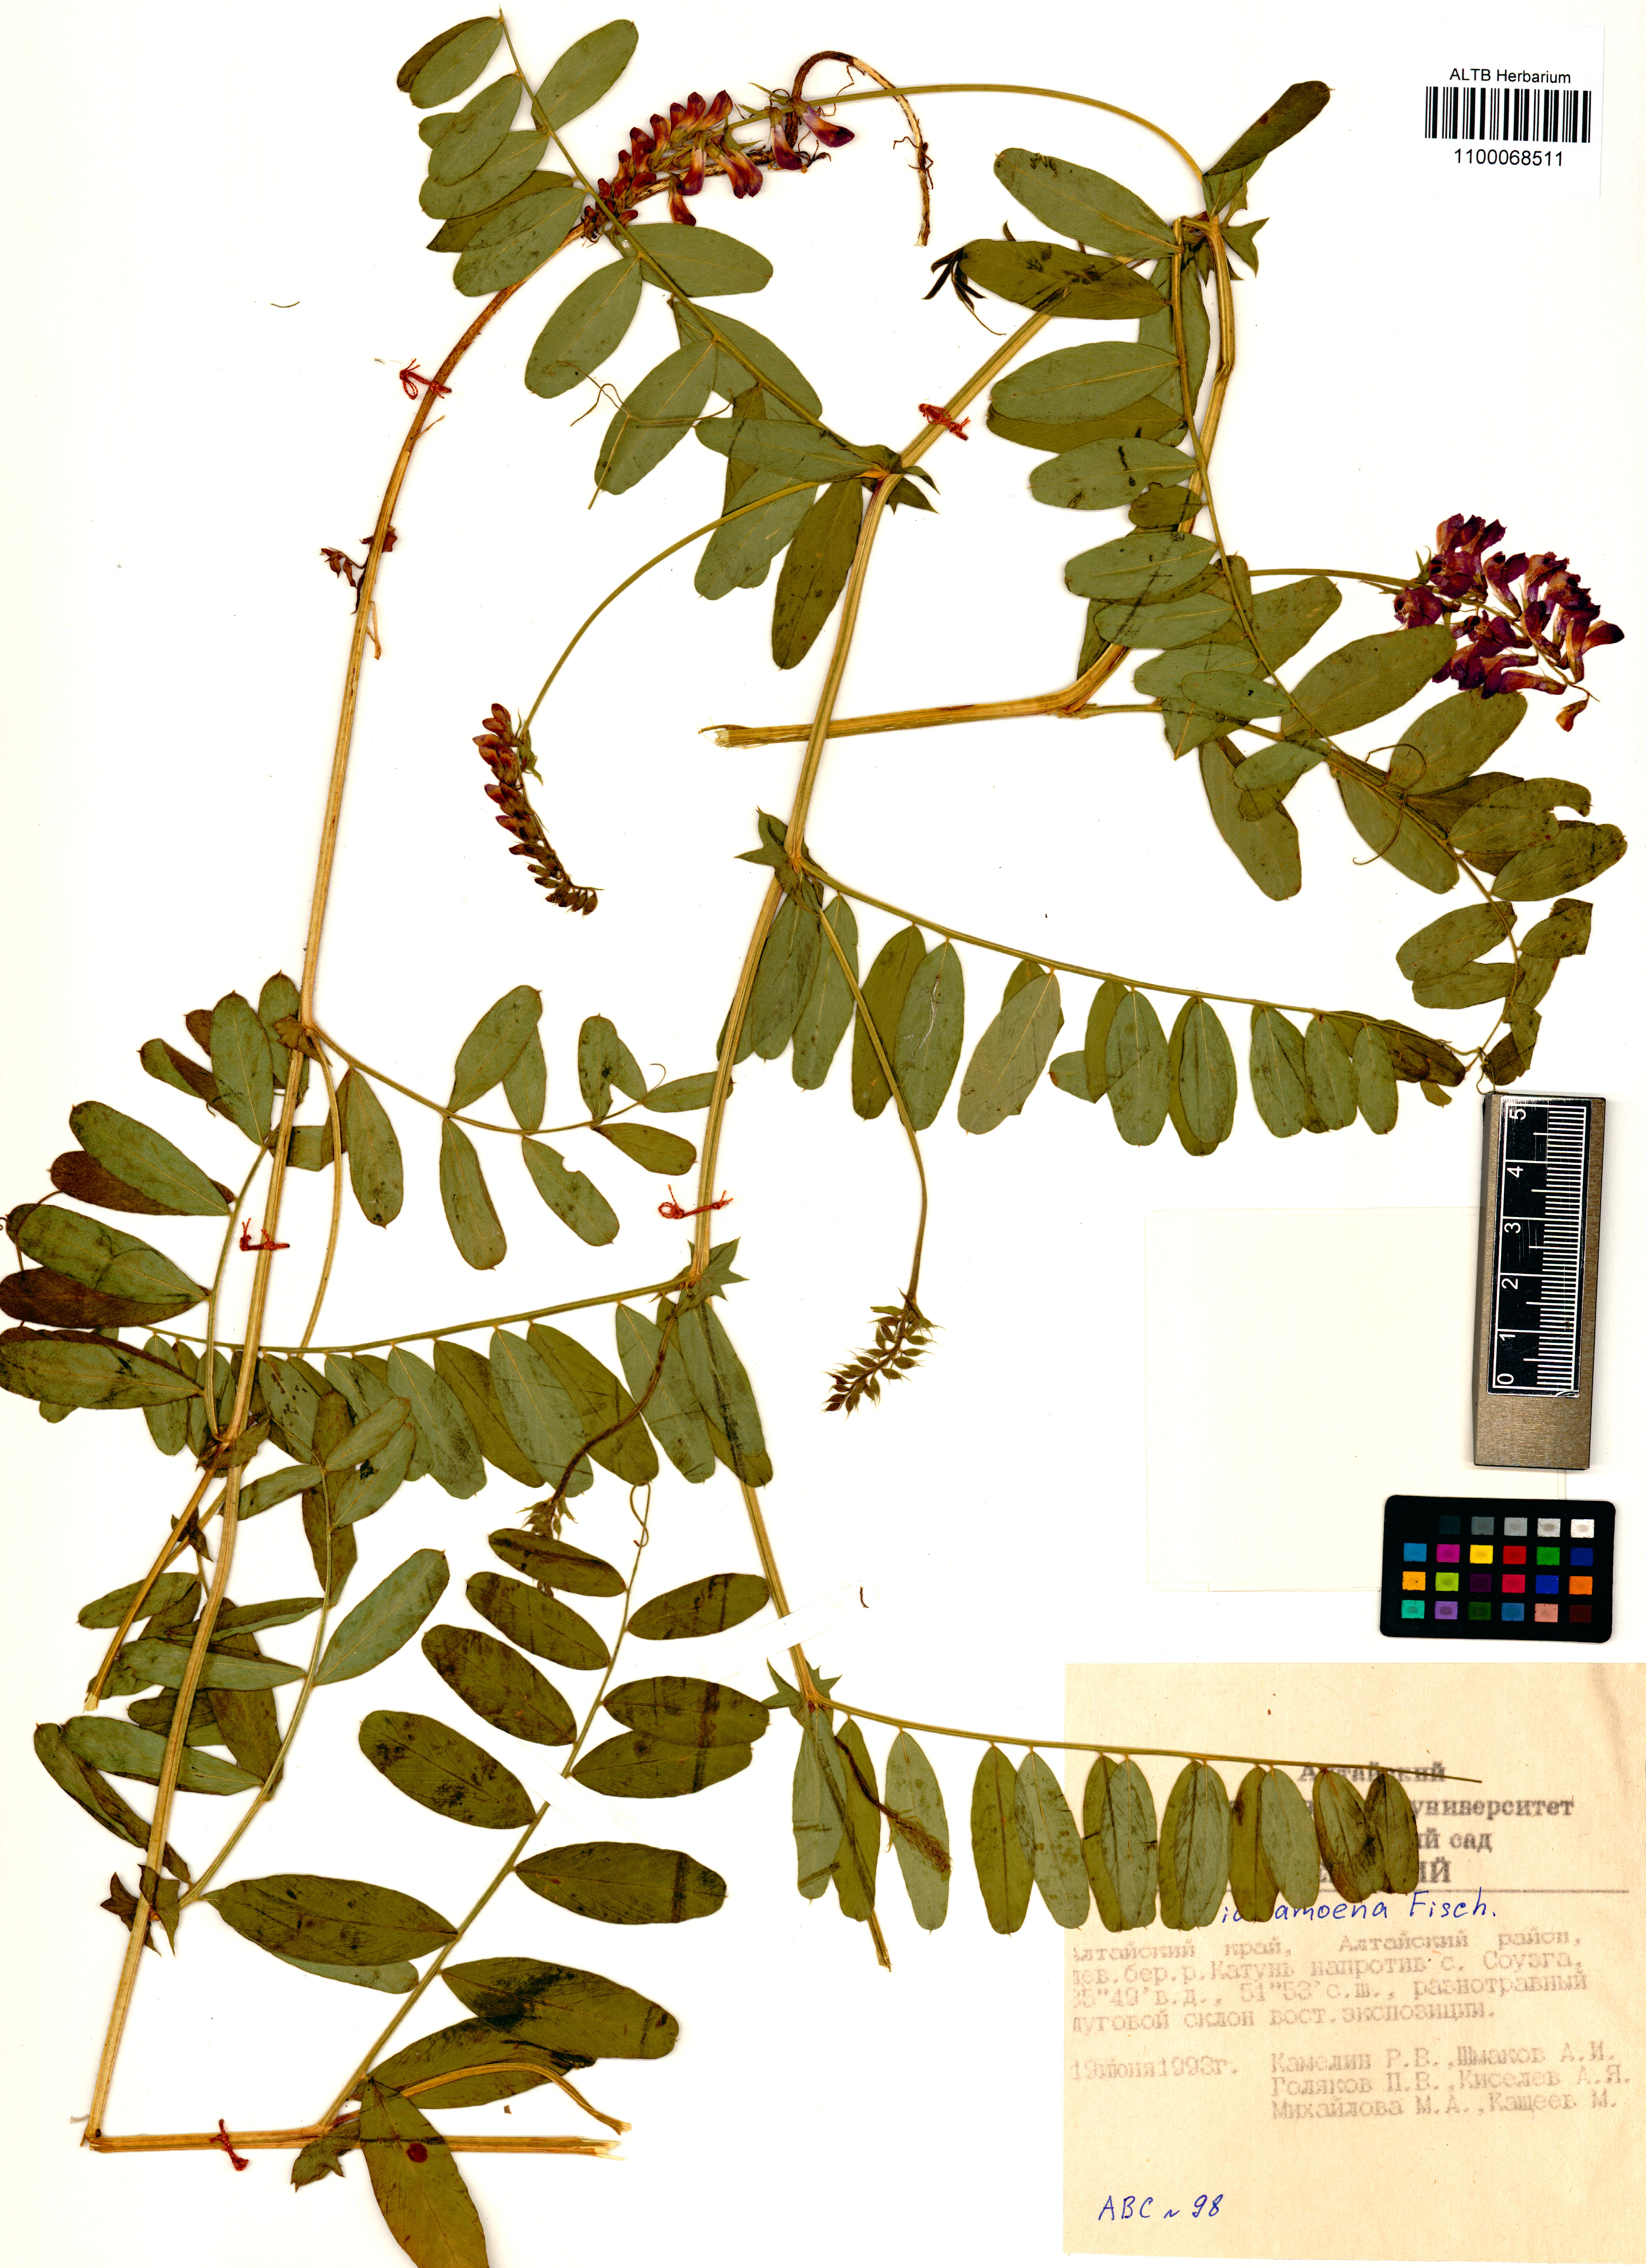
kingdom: Plantae
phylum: Tracheophyta
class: Magnoliopsida
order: Fabales
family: Fabaceae
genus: Vicia
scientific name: Vicia amoena
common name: Cheder ebs
